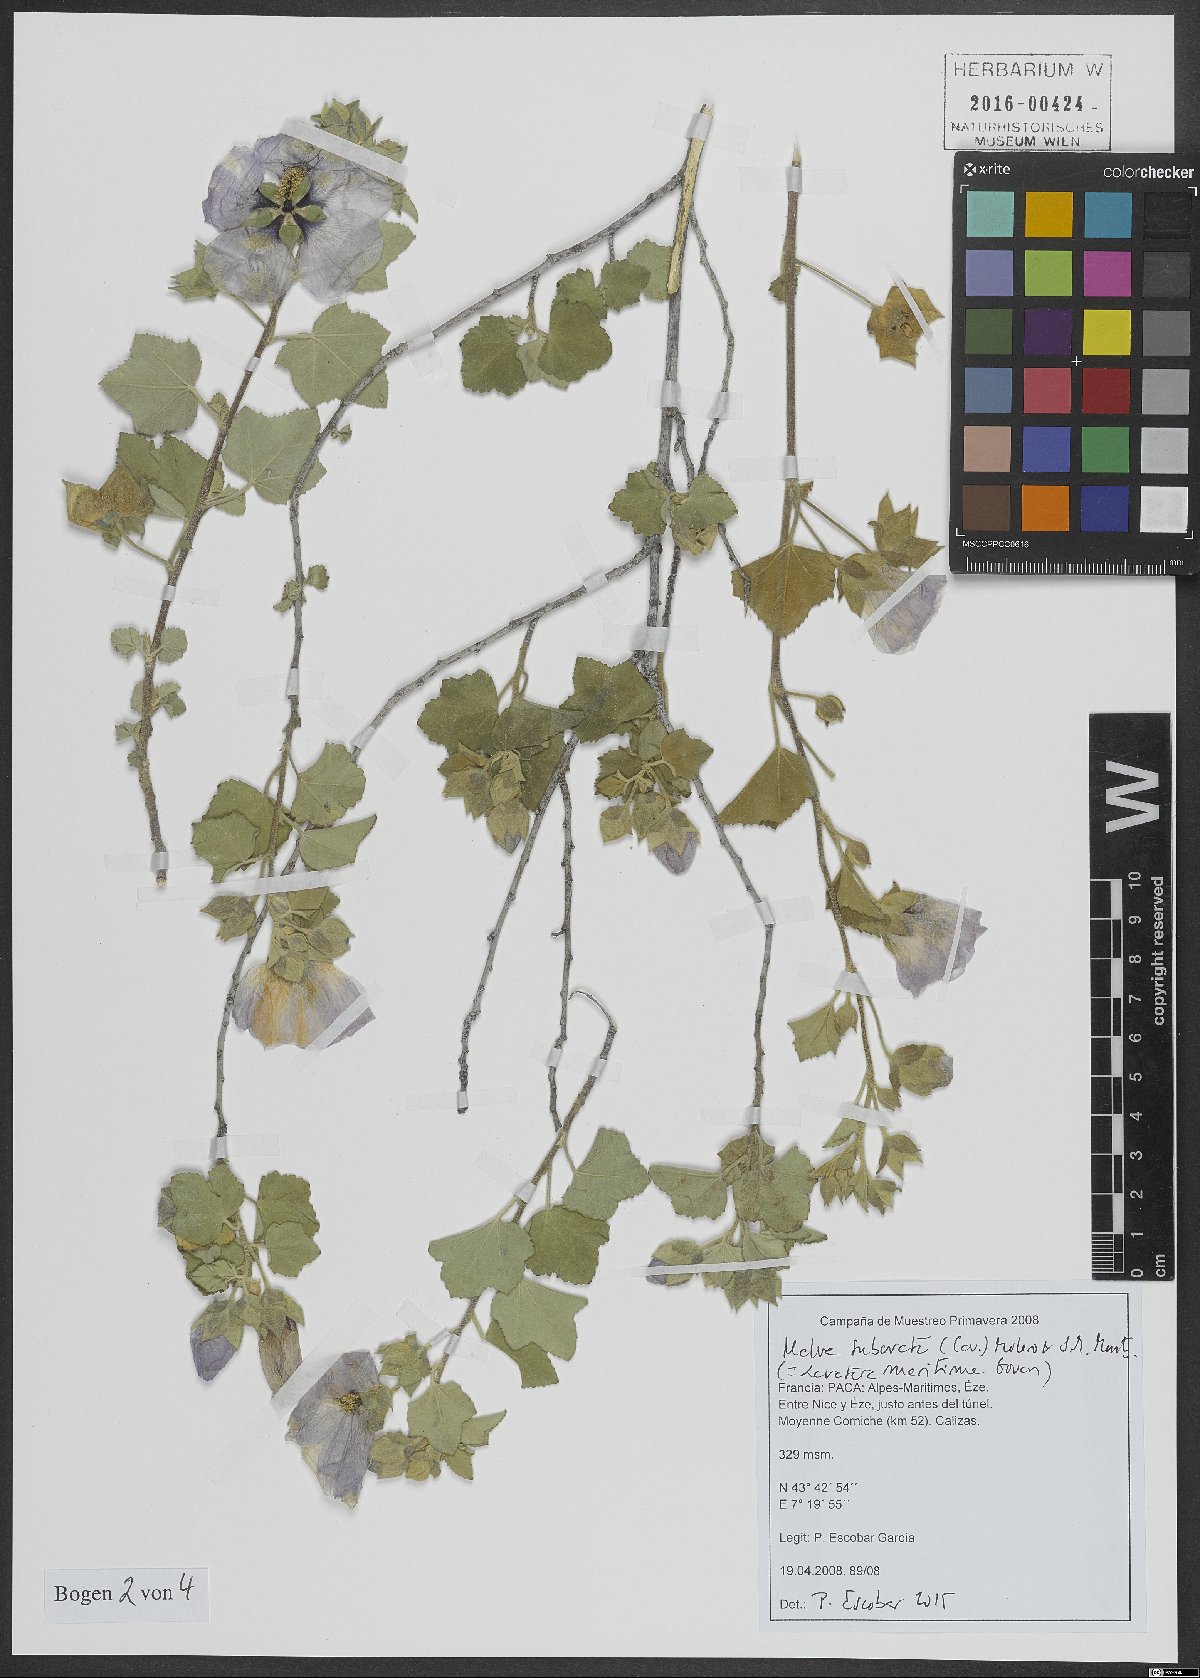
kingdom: Plantae
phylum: Tracheophyta
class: Magnoliopsida
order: Malvales
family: Malvaceae
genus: Malva
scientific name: Malva subovata
